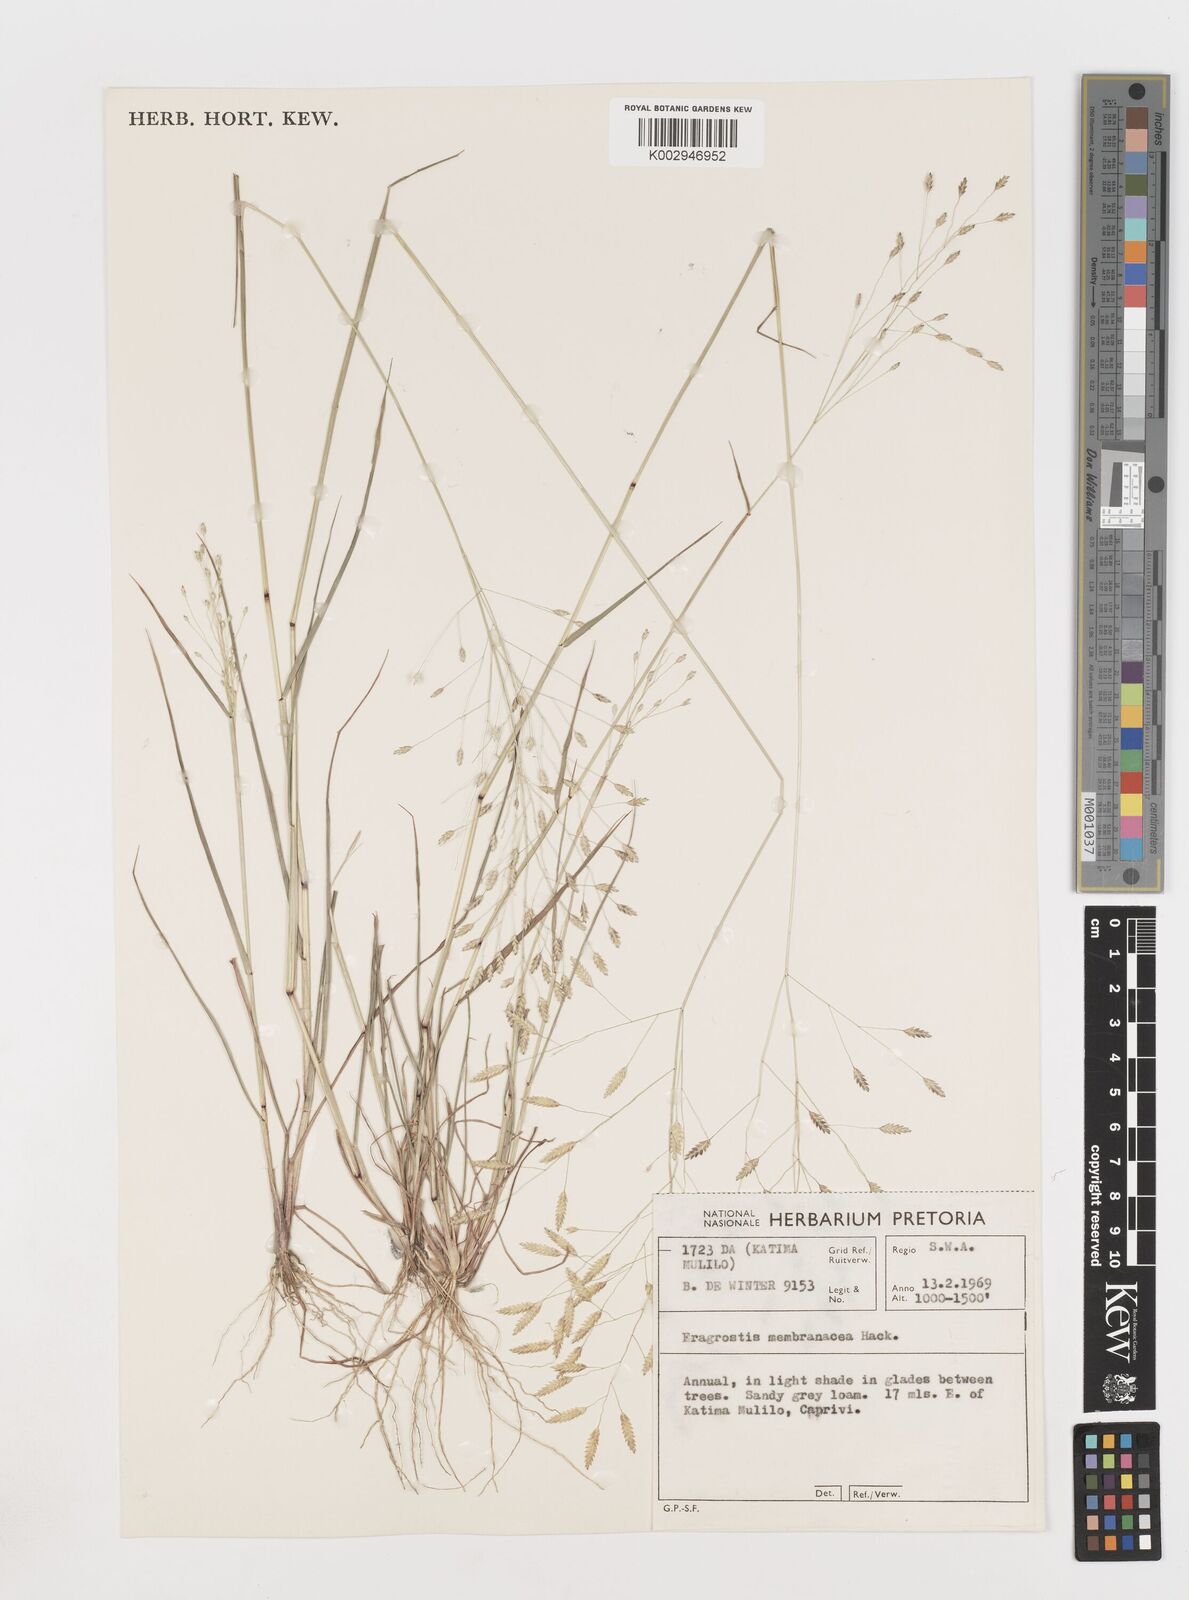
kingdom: Plantae
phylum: Tracheophyta
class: Liliopsida
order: Poales
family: Poaceae
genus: Eragrostis
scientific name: Eragrostis membranacea
